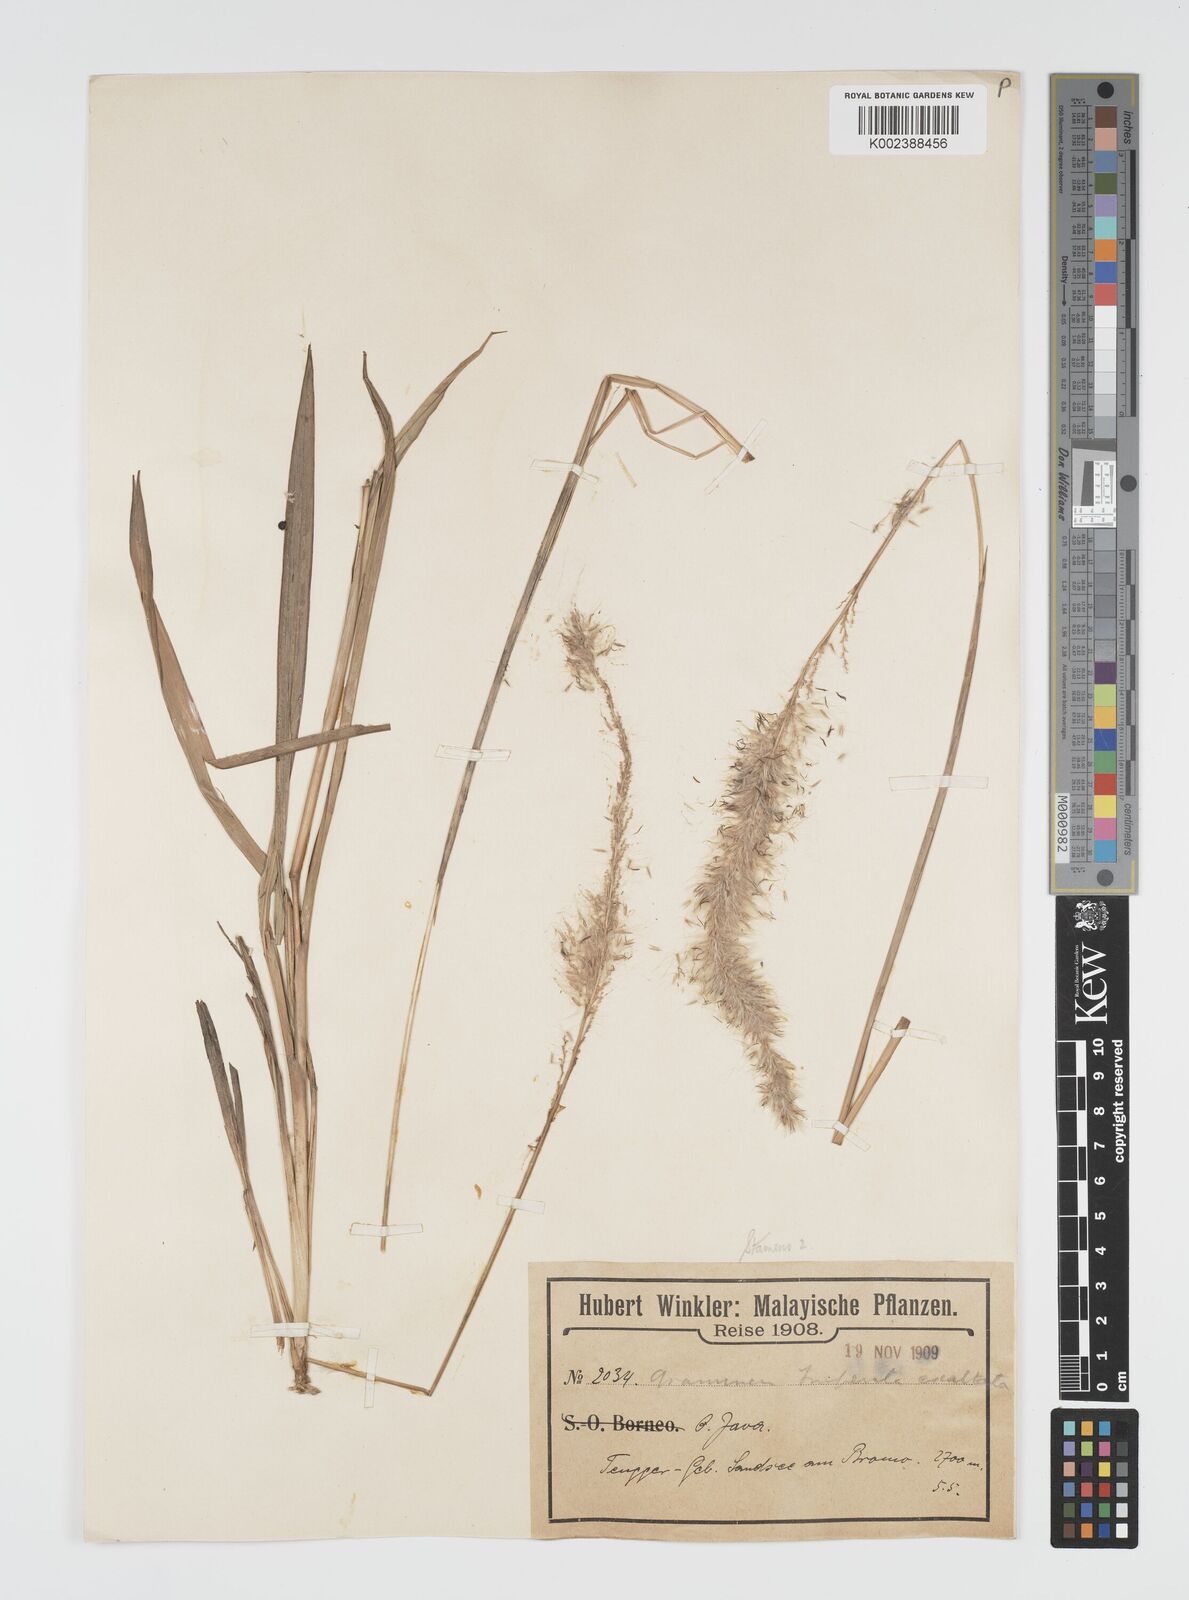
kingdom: Plantae
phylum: Tracheophyta
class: Liliopsida
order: Poales
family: Poaceae
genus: Imperata
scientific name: Imperata
